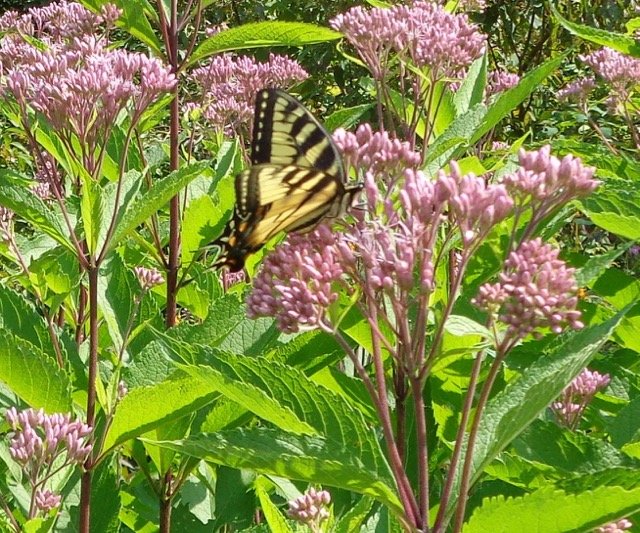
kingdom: Animalia
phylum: Arthropoda
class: Insecta
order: Lepidoptera
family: Papilionidae
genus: Pterourus
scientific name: Pterourus
